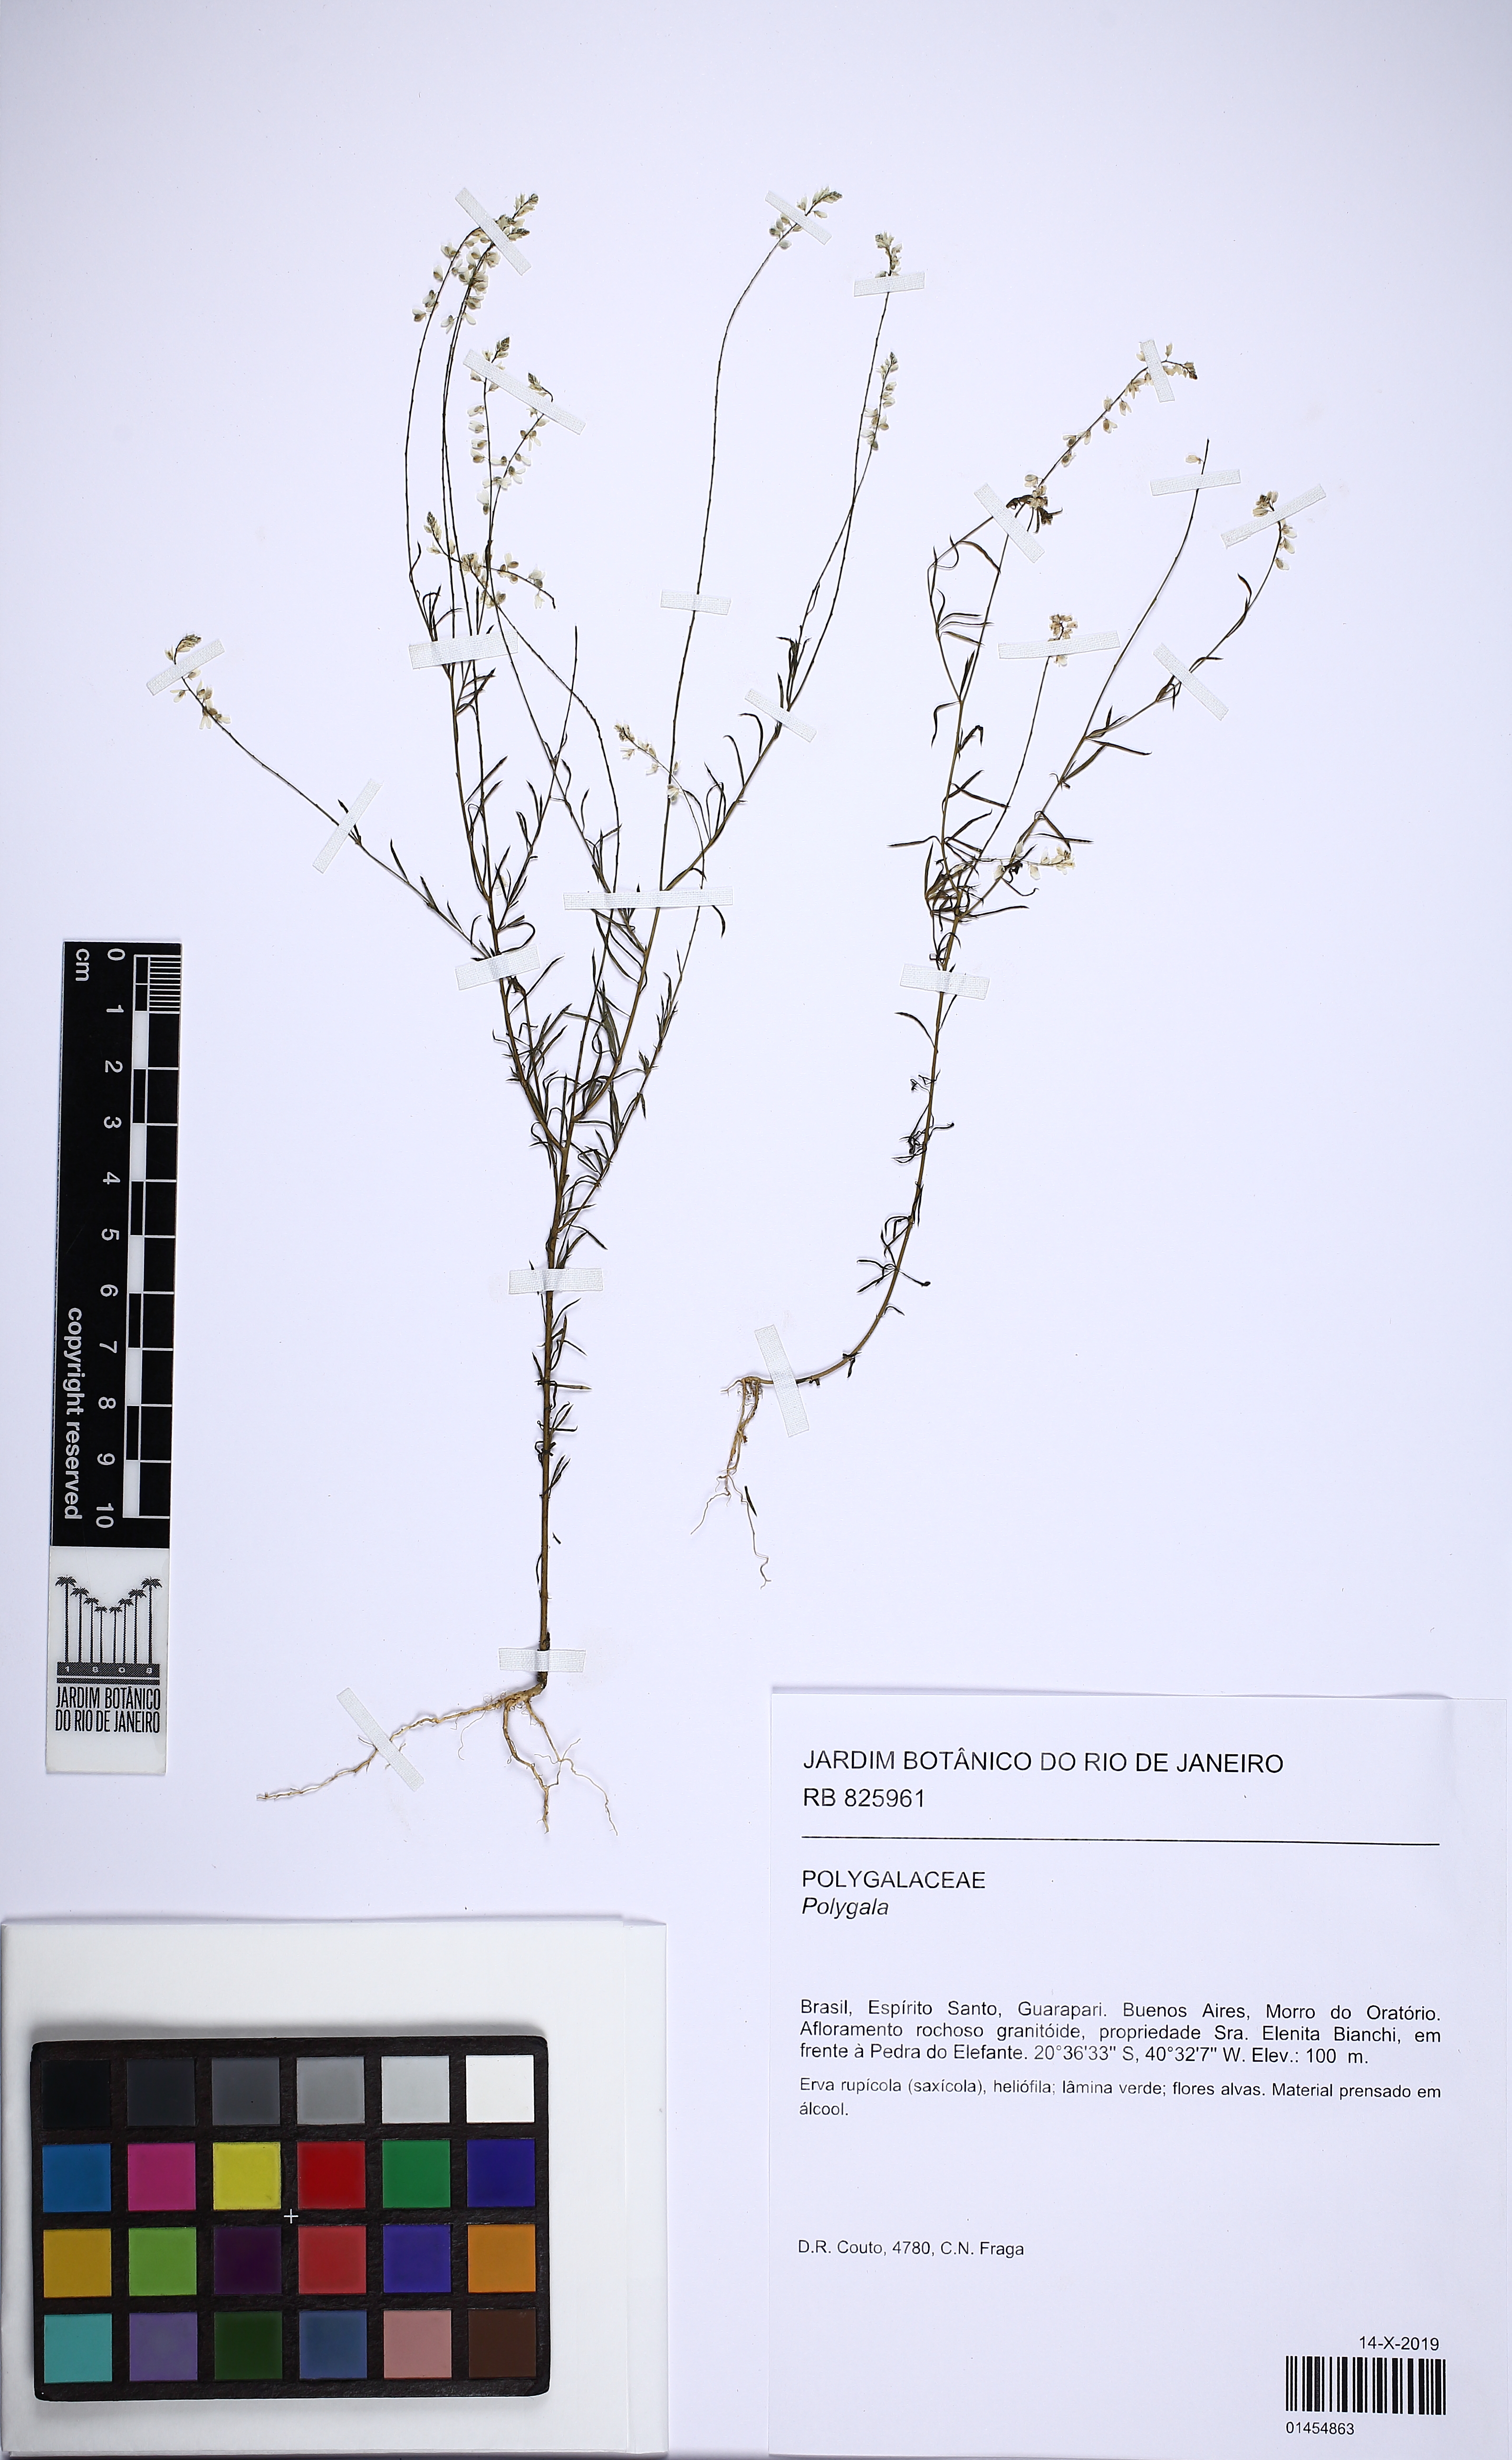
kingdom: Plantae
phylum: Tracheophyta
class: Magnoliopsida
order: Fabales
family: Polygalaceae
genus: Polygala
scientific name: Polygala
